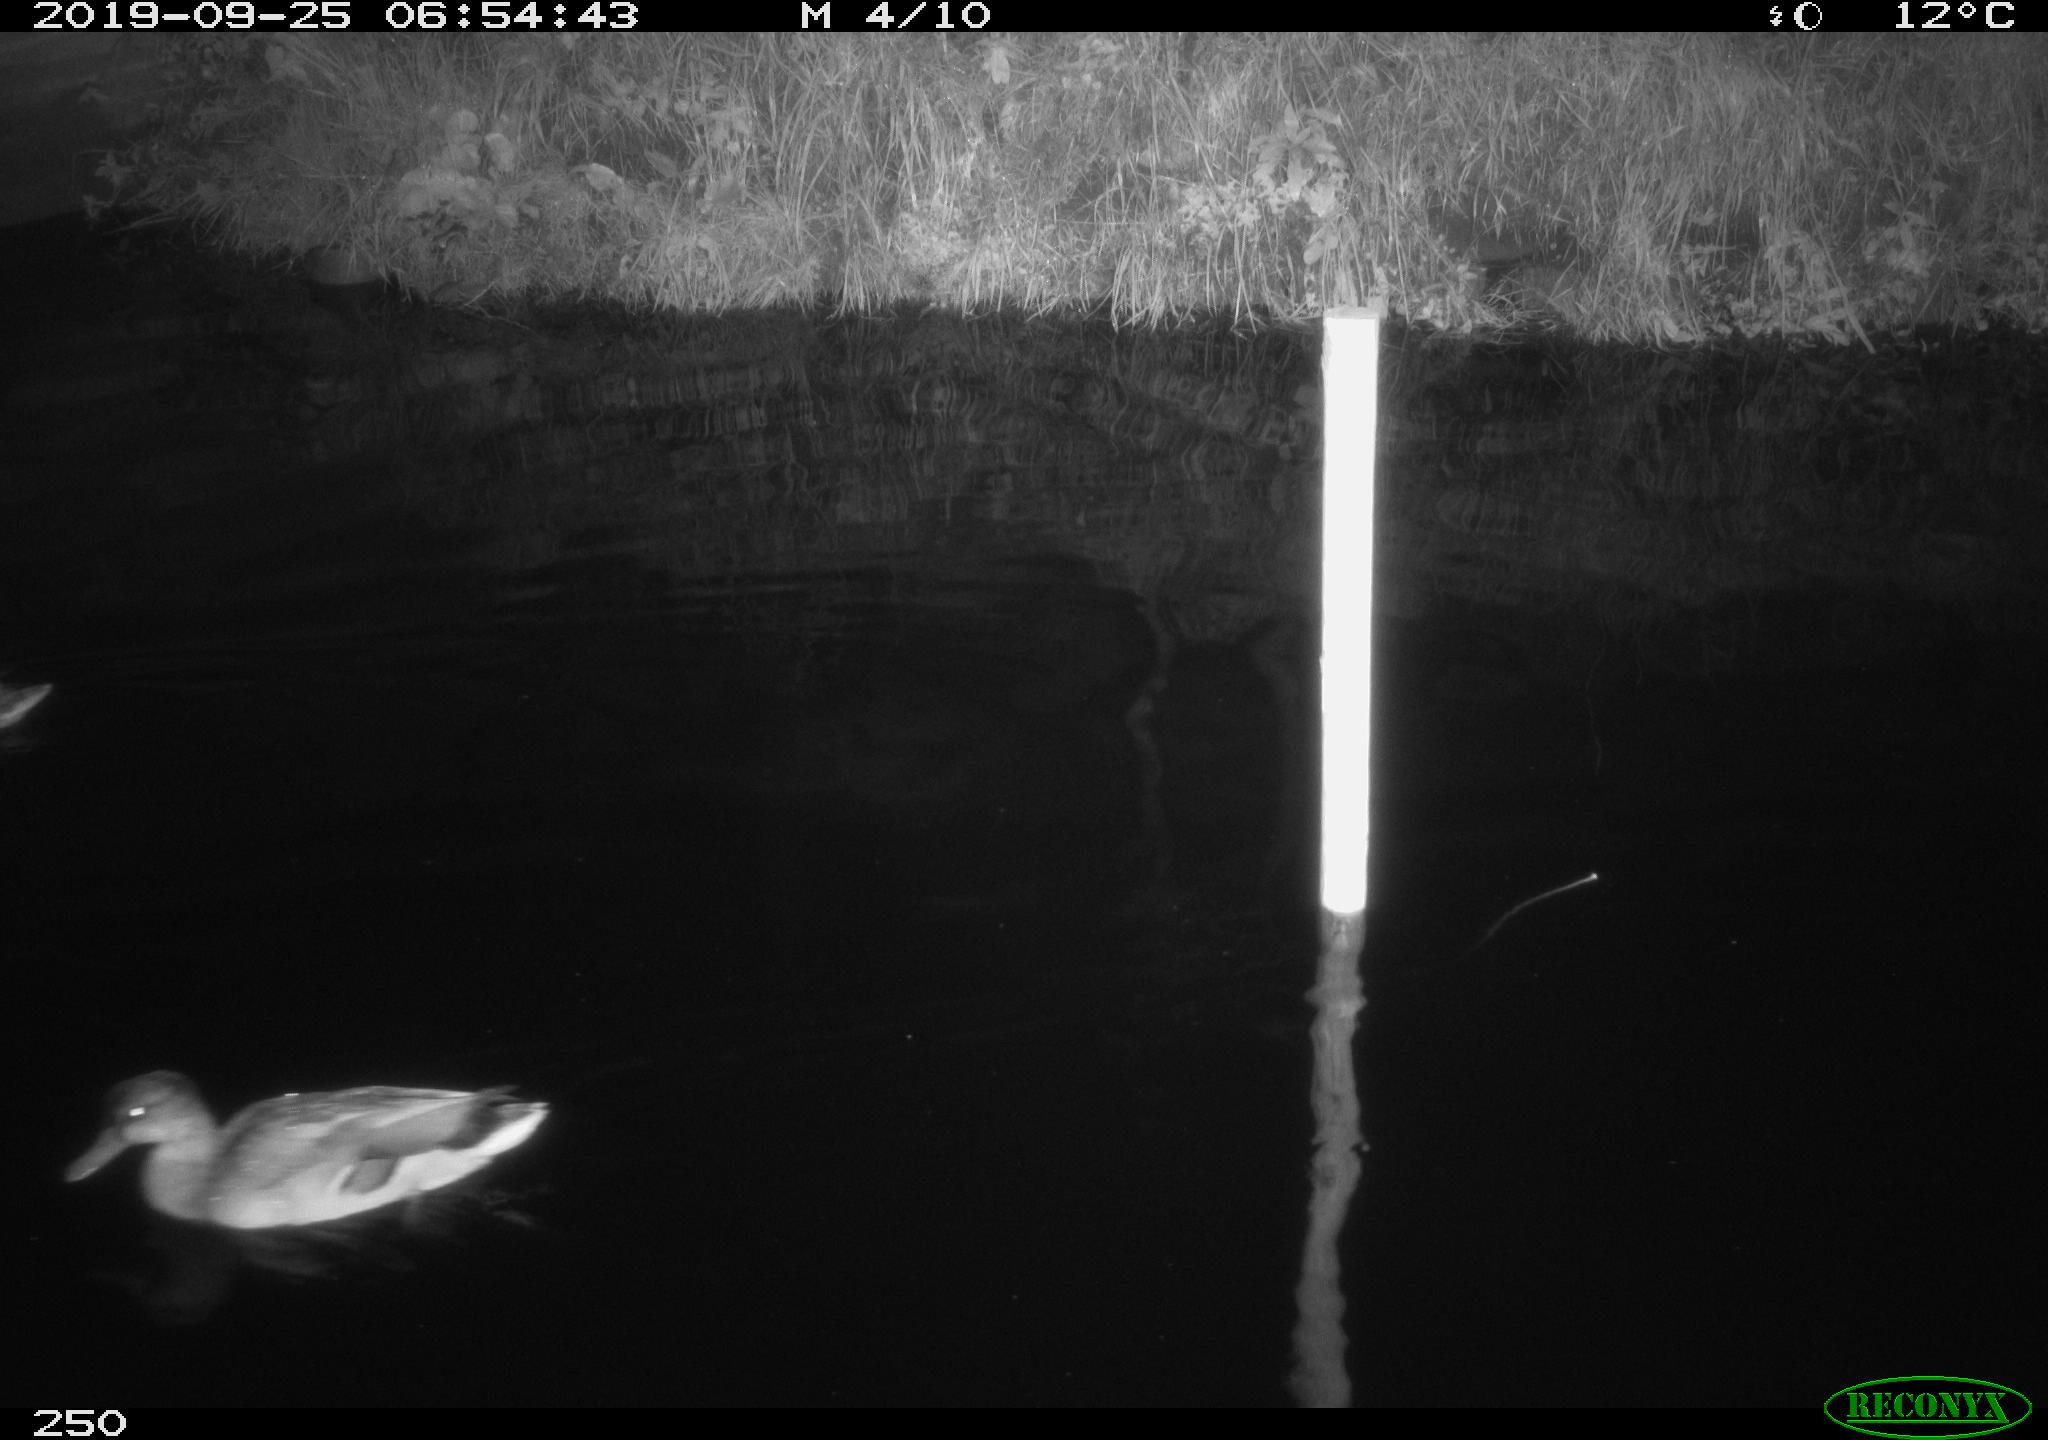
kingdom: Animalia
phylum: Chordata
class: Aves
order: Anseriformes
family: Anatidae
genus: Anas
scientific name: Anas platyrhynchos
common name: Mallard
